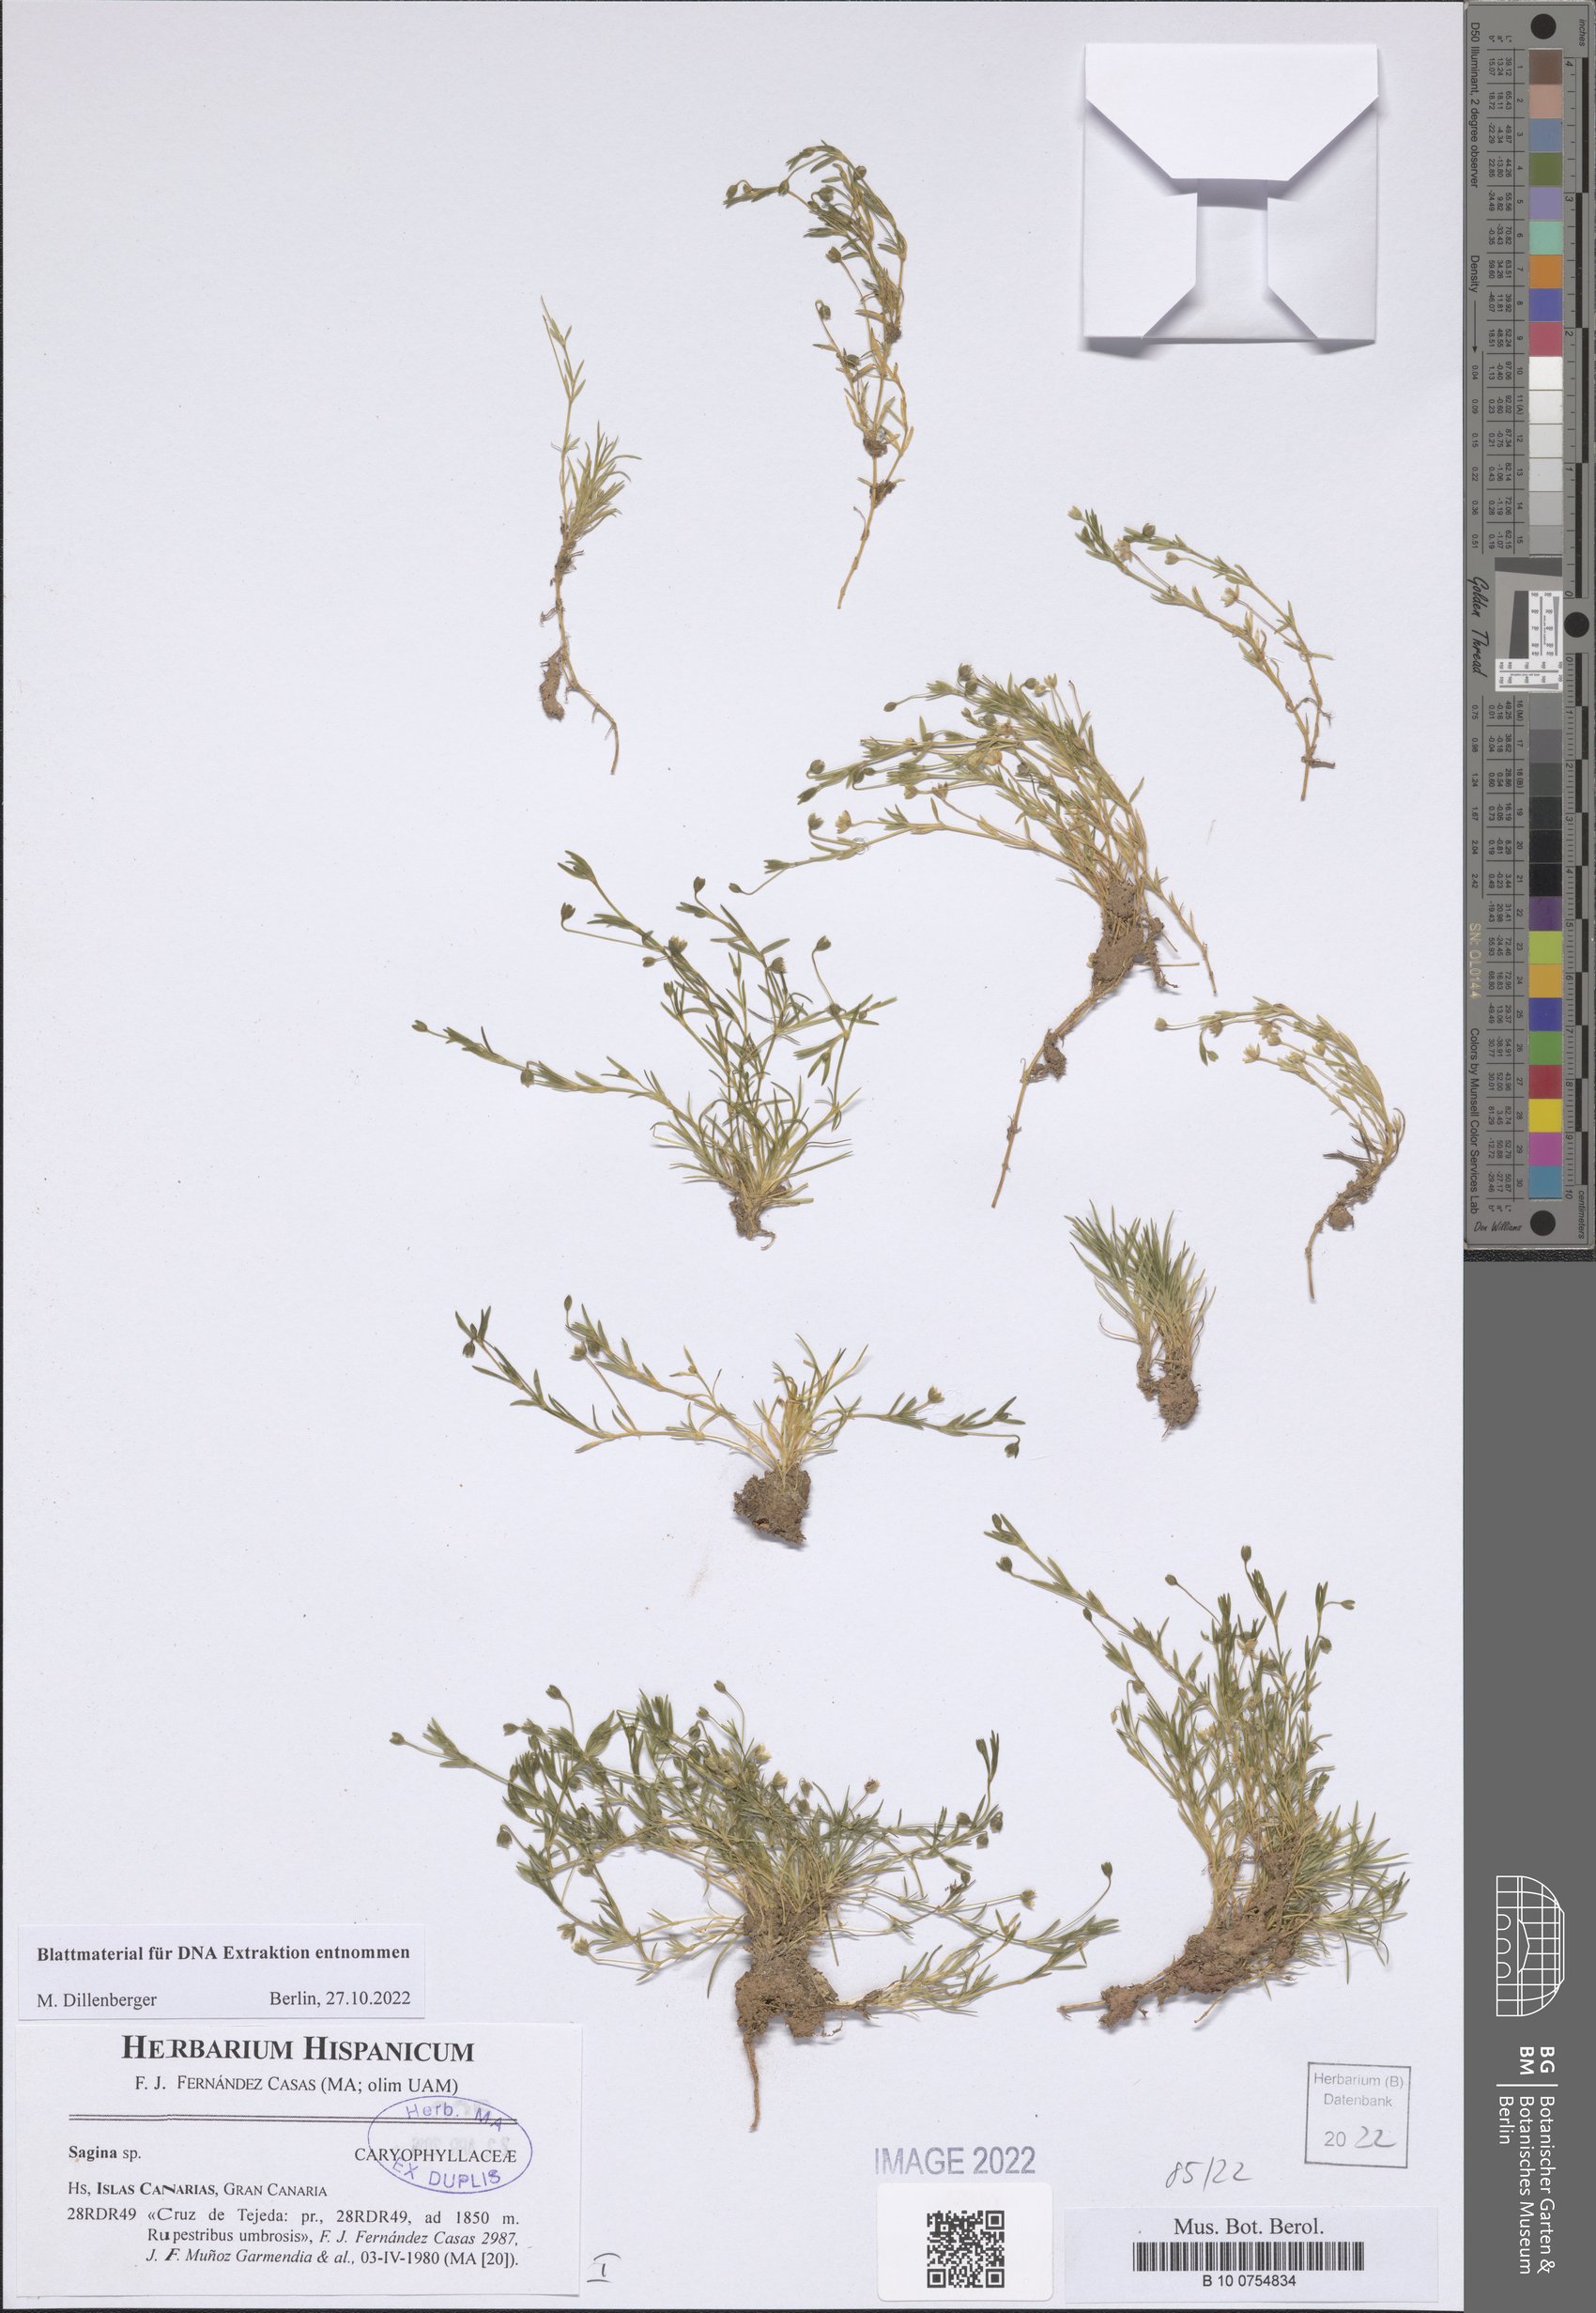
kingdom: Plantae
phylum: Tracheophyta
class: Magnoliopsida
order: Caryophyllales
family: Caryophyllaceae
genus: Sagina
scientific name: Sagina
